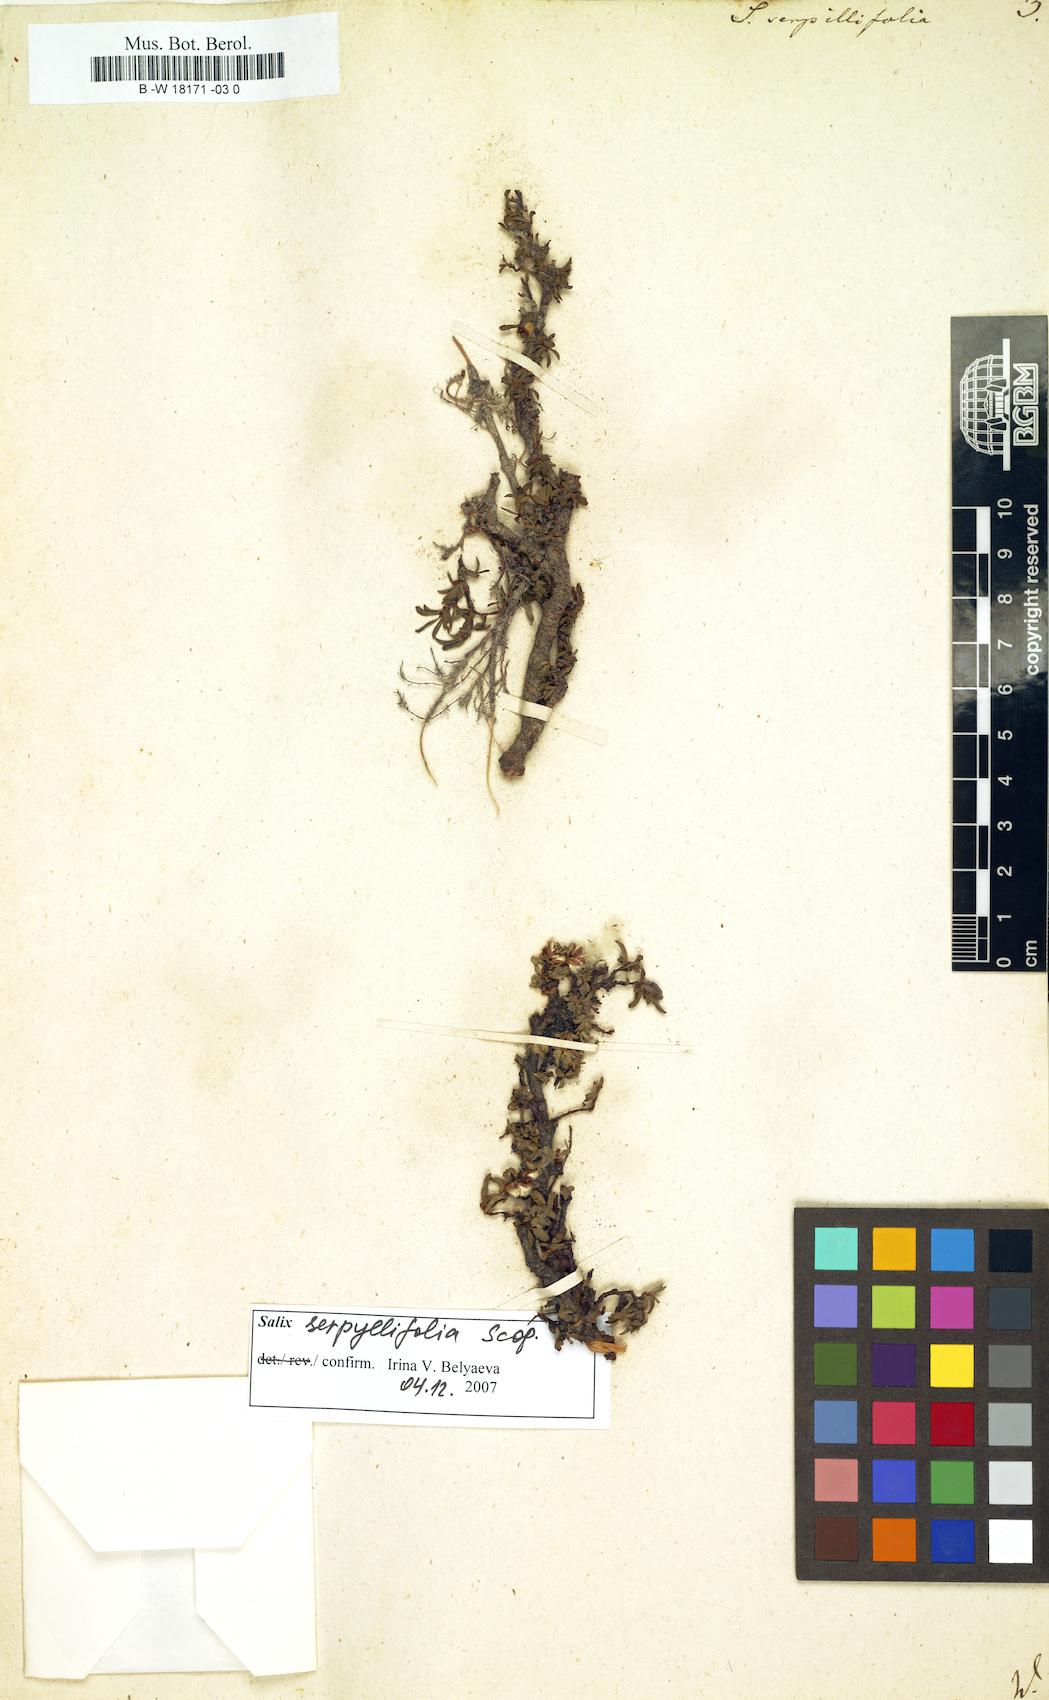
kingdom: Plantae
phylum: Tracheophyta
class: Magnoliopsida
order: Malpighiales
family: Salicaceae
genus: Salix
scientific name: Salix serpillifolia
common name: Thyme-leaf willow
